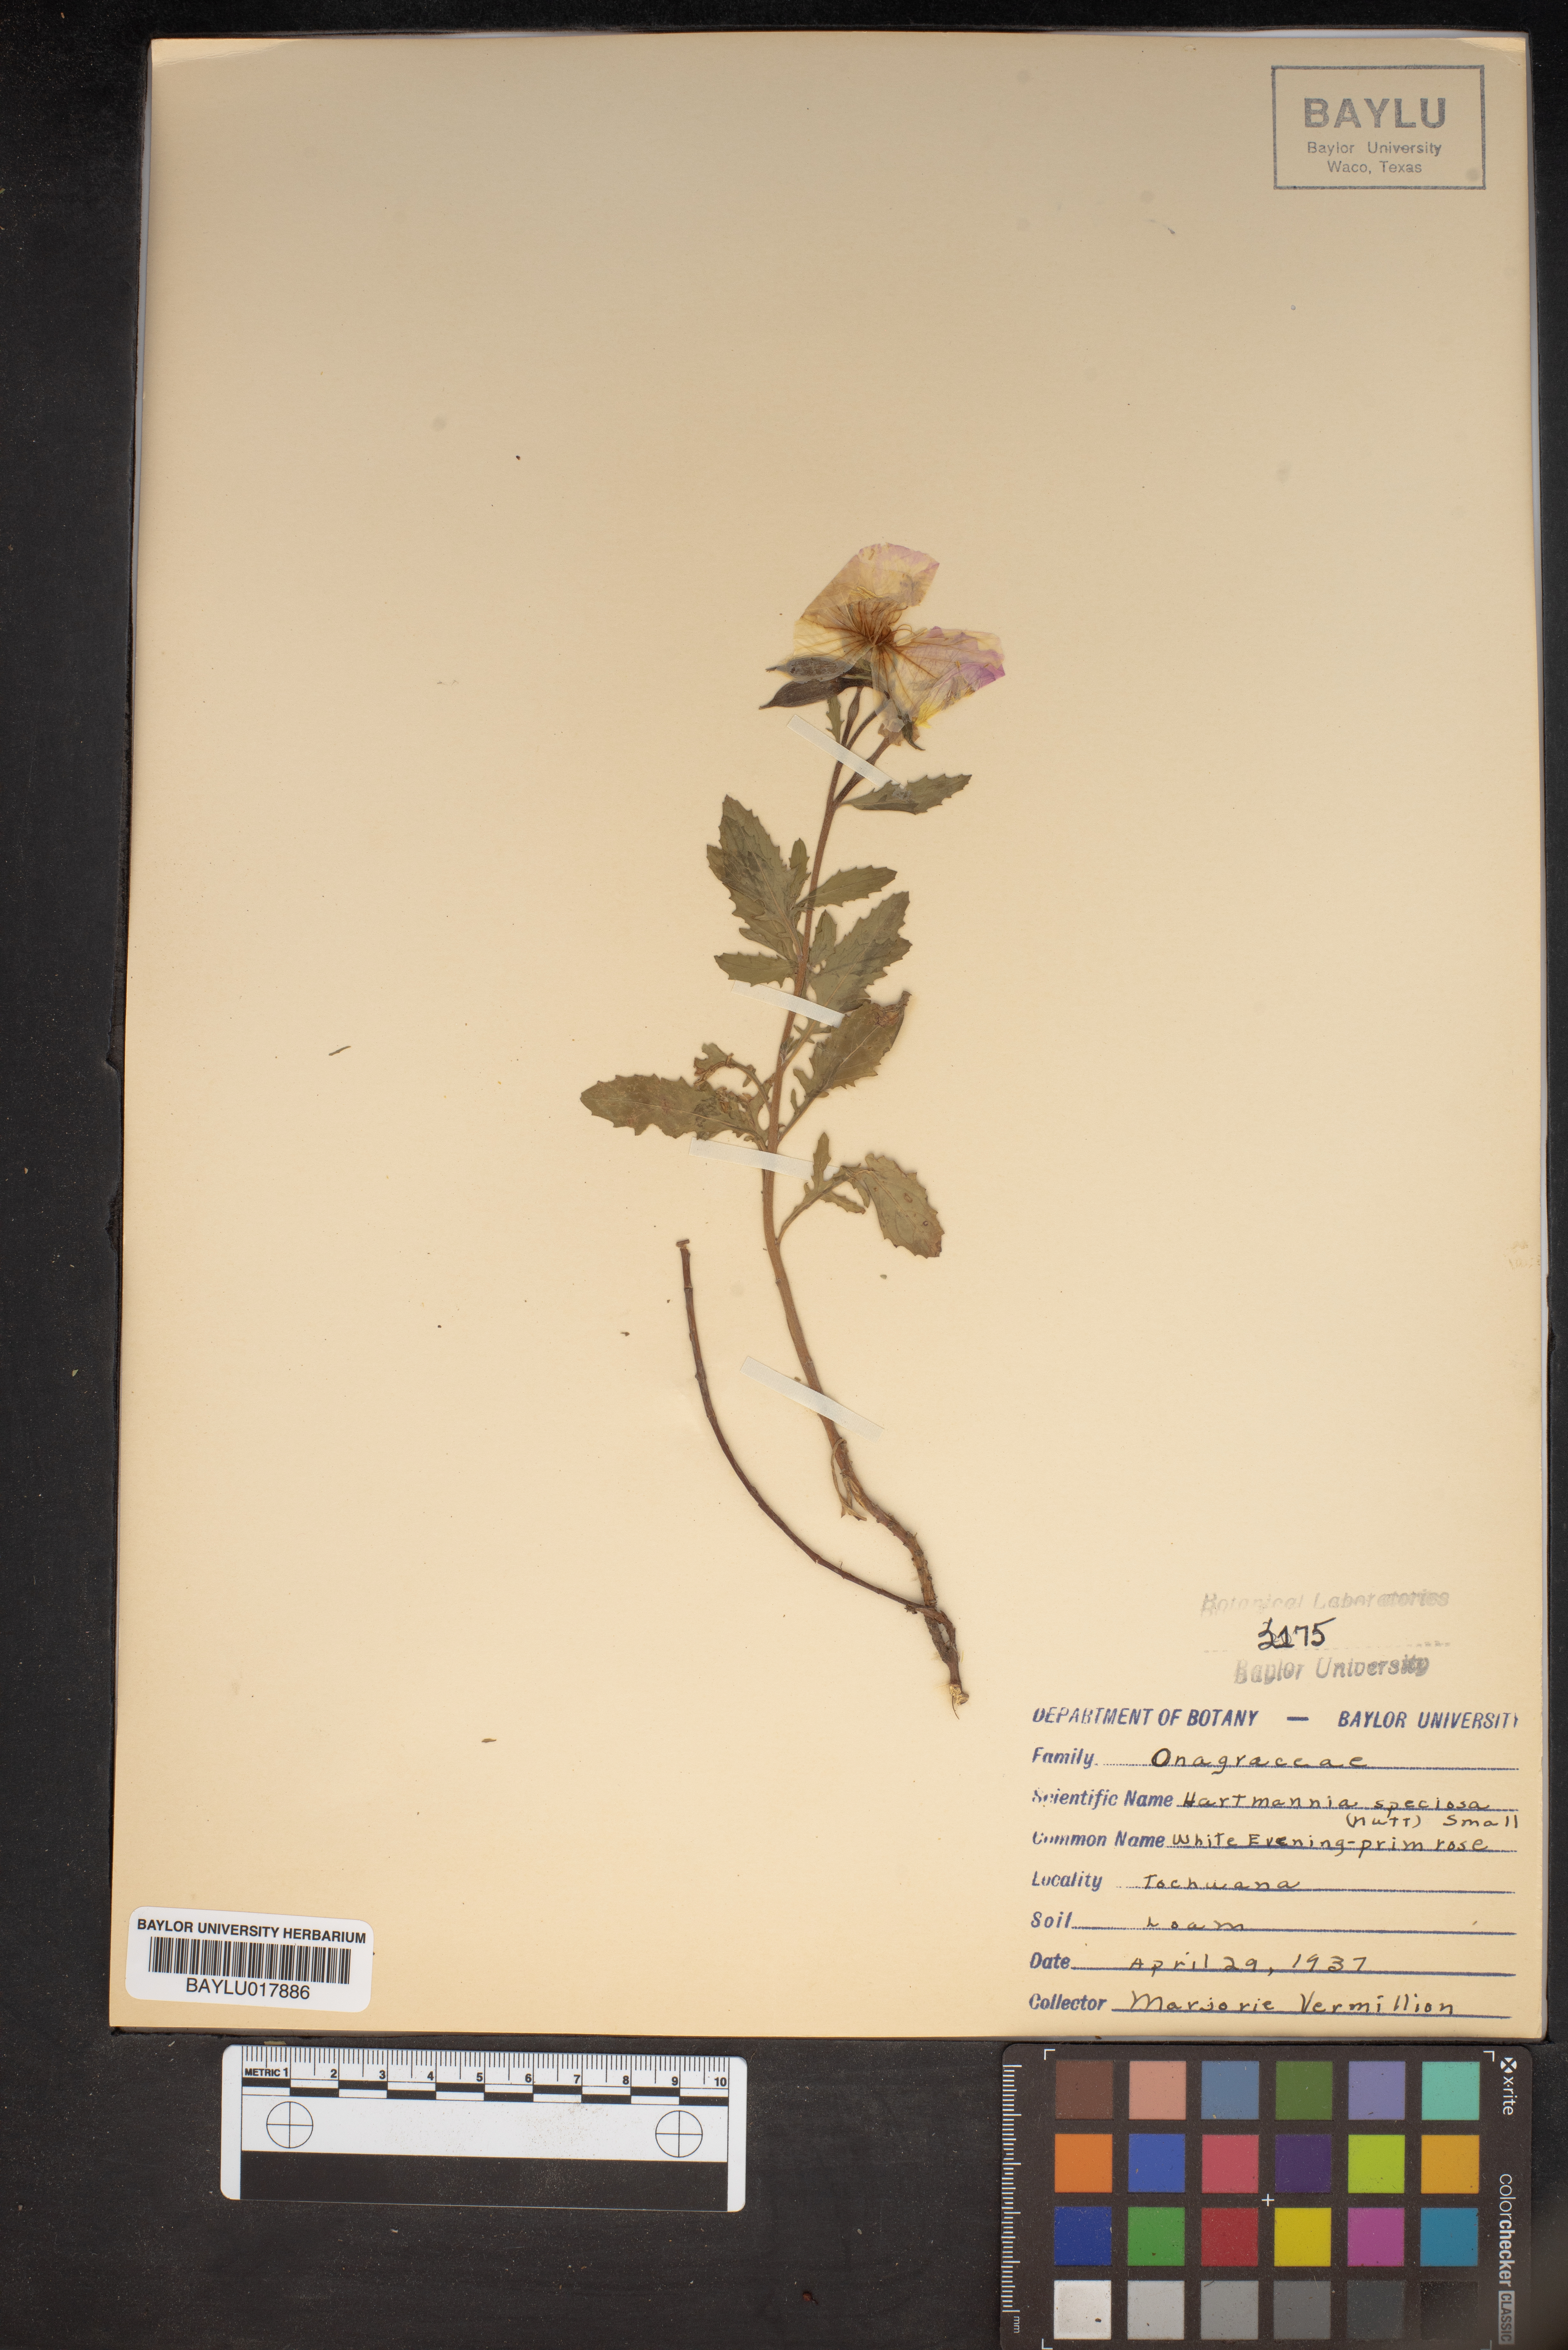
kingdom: Plantae
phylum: Tracheophyta
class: Magnoliopsida
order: Myrtales
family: Onagraceae
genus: Oenothera
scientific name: Oenothera speciosa
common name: White evening-primrose
